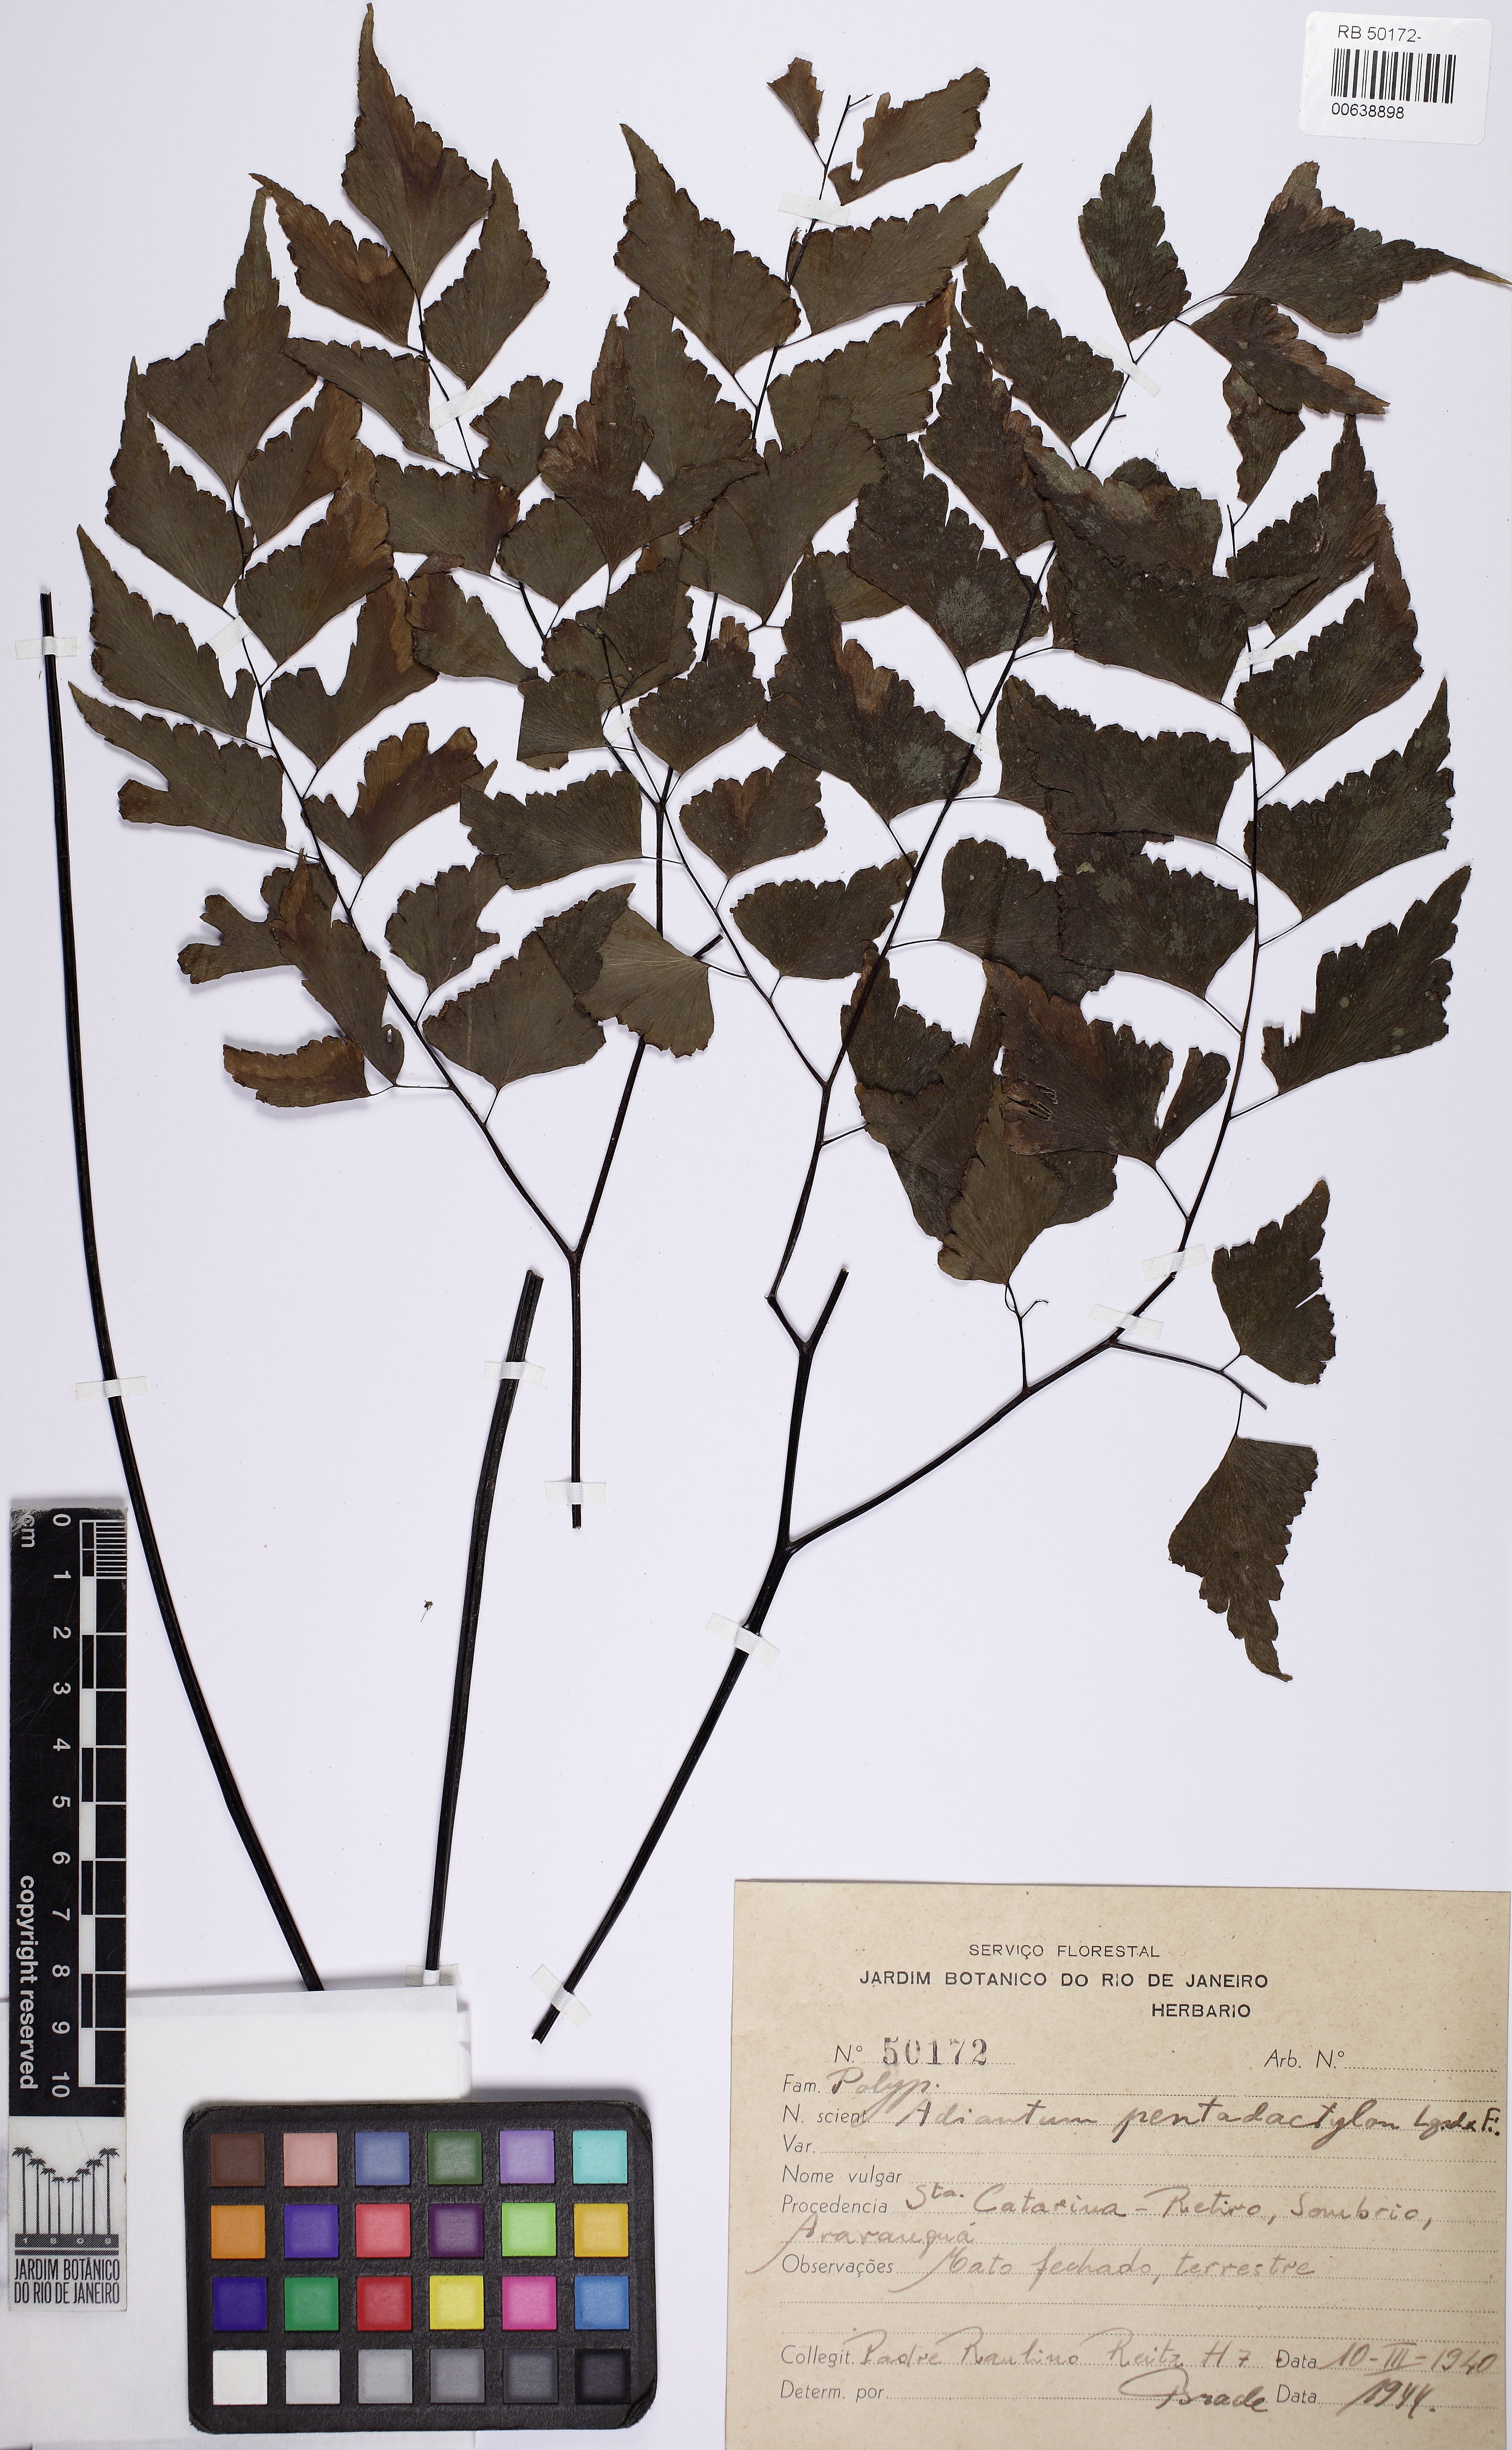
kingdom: Plantae
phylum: Tracheophyta
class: Polypodiopsida
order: Polypodiales
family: Pteridaceae
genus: Adiantum
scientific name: Adiantum pentadactylon
